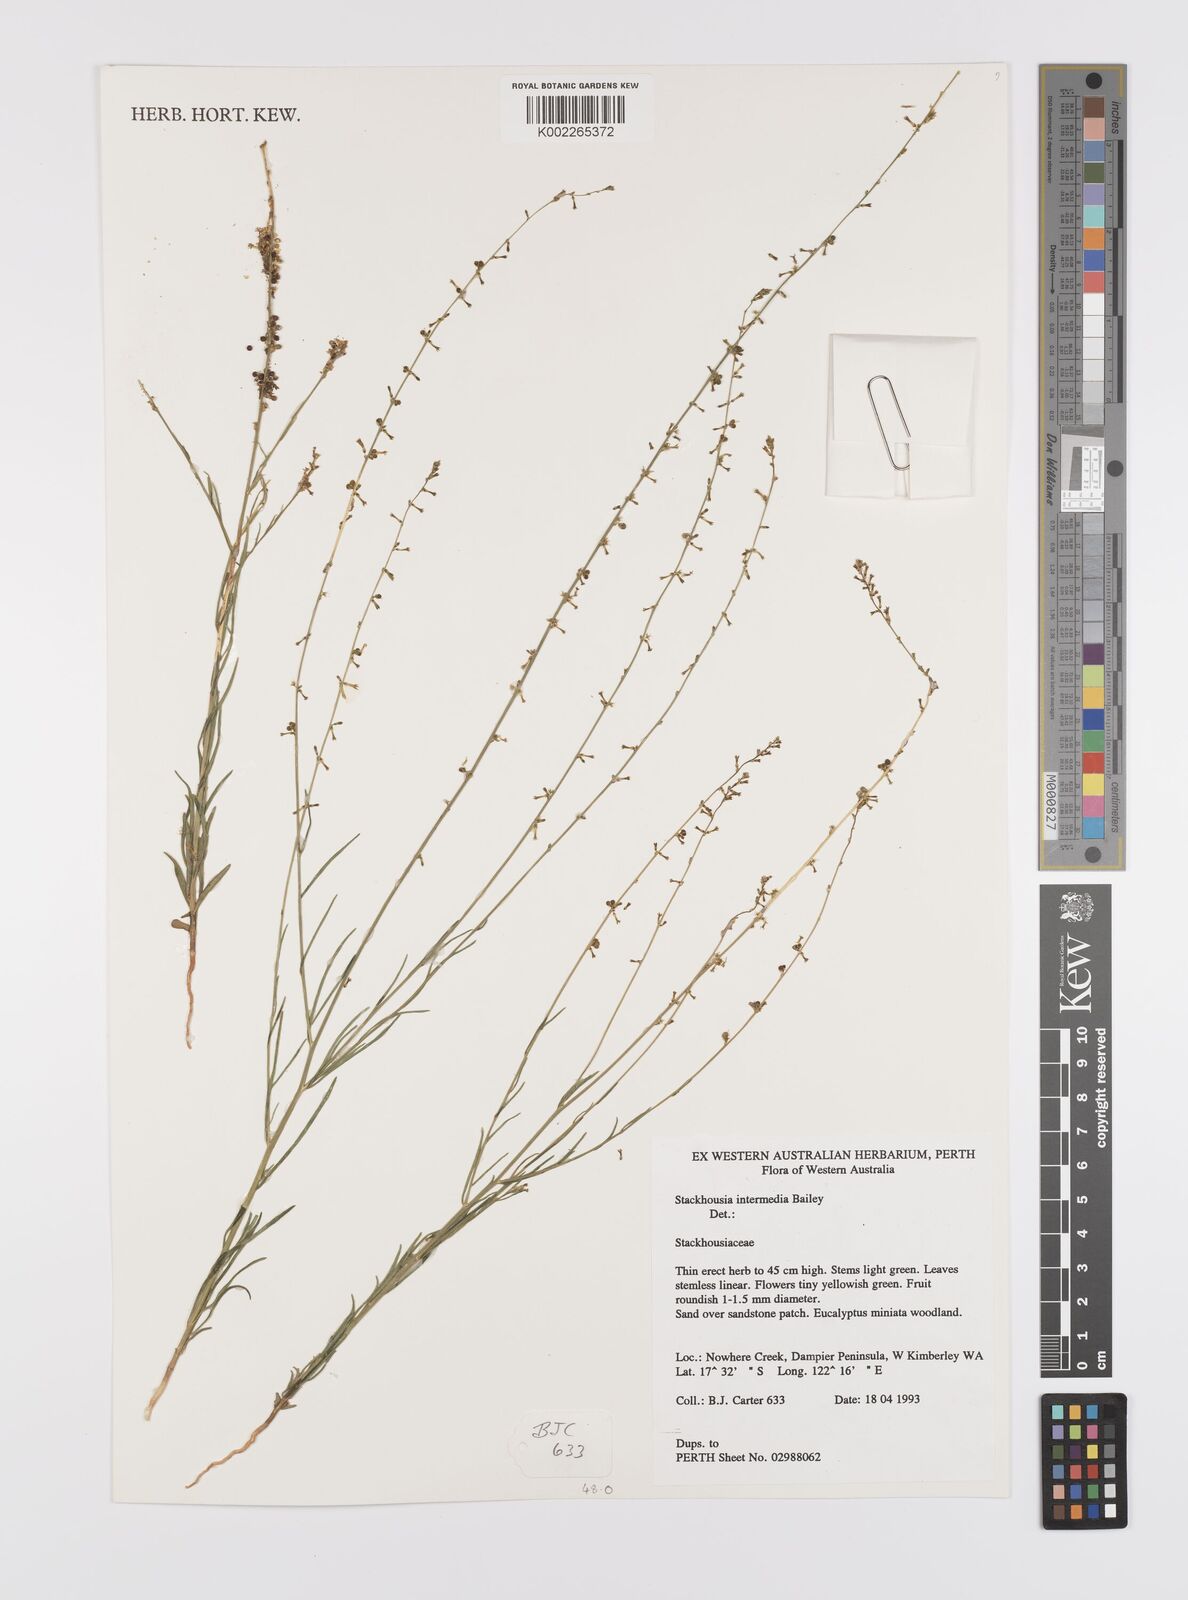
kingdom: Plantae
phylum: Tracheophyta
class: Magnoliopsida
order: Celastrales
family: Celastraceae
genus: Stackhousia
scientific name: Stackhousia intermedia
